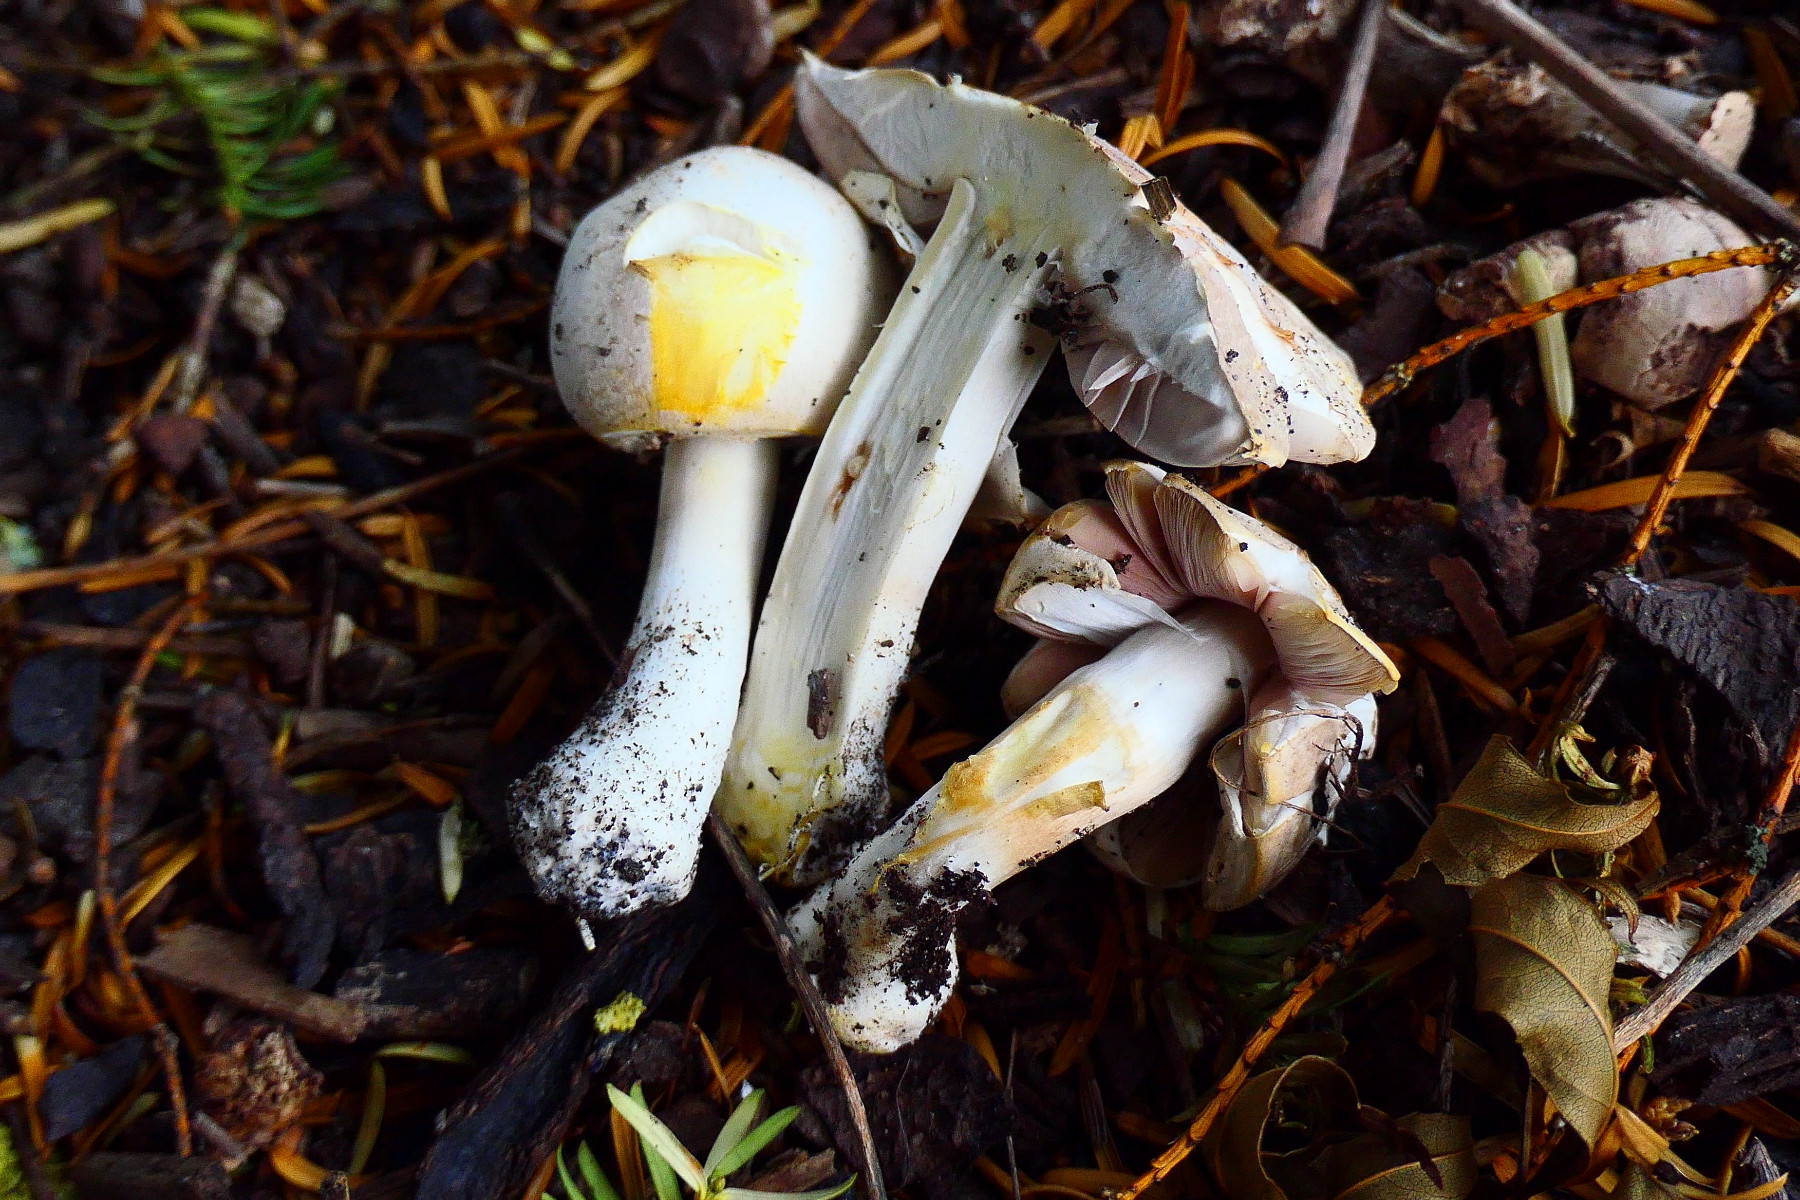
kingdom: Fungi
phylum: Basidiomycota
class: Agaricomycetes
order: Agaricales
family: Agaricaceae
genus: Agaricus
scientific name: Agaricus xanthodermus
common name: karbol-champignon
